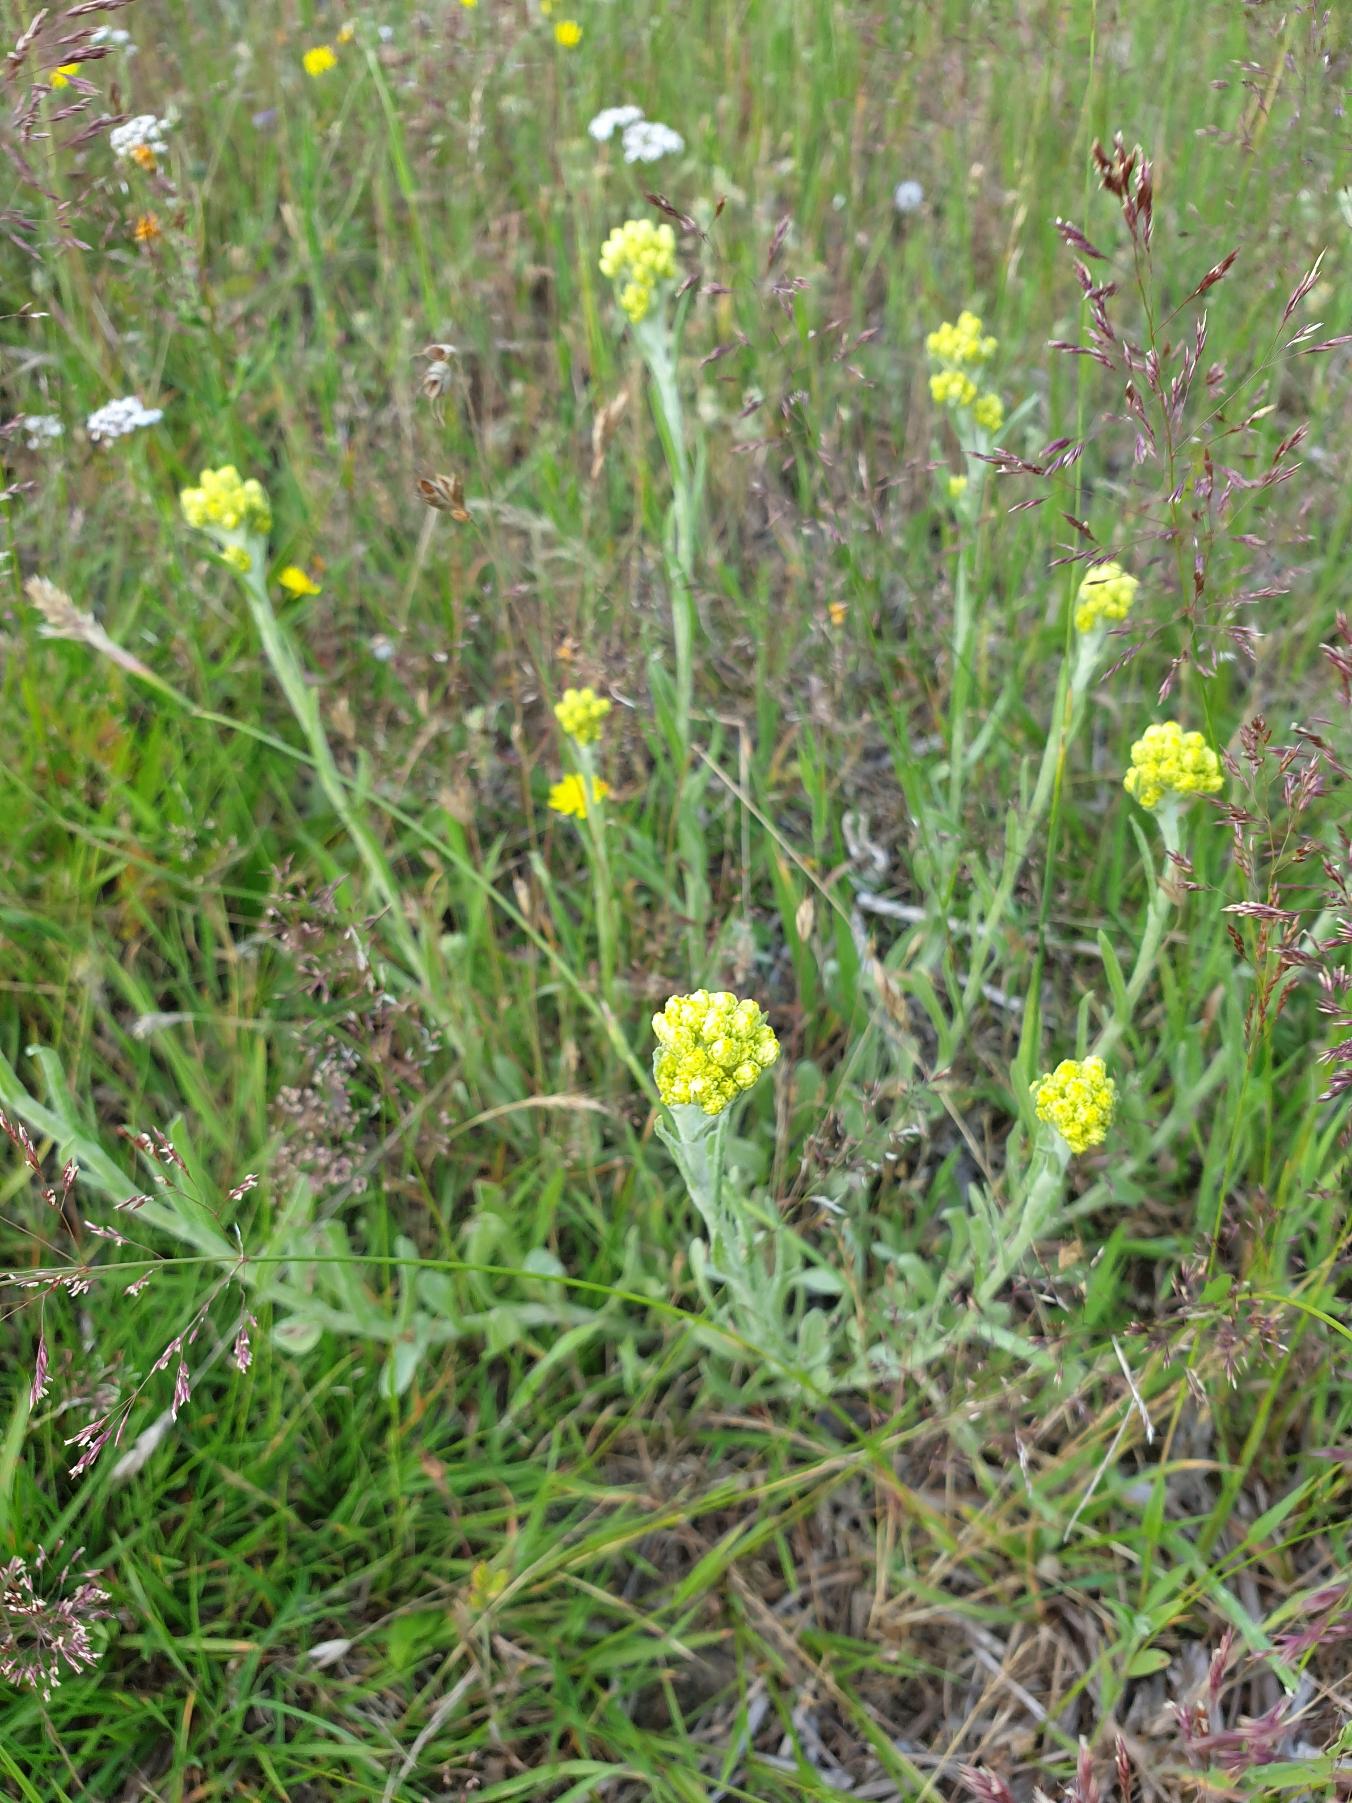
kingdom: Plantae
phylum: Tracheophyta
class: Magnoliopsida
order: Asterales
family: Asteraceae
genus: Helichrysum
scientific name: Helichrysum arenarium
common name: Gul evighedsblomst
